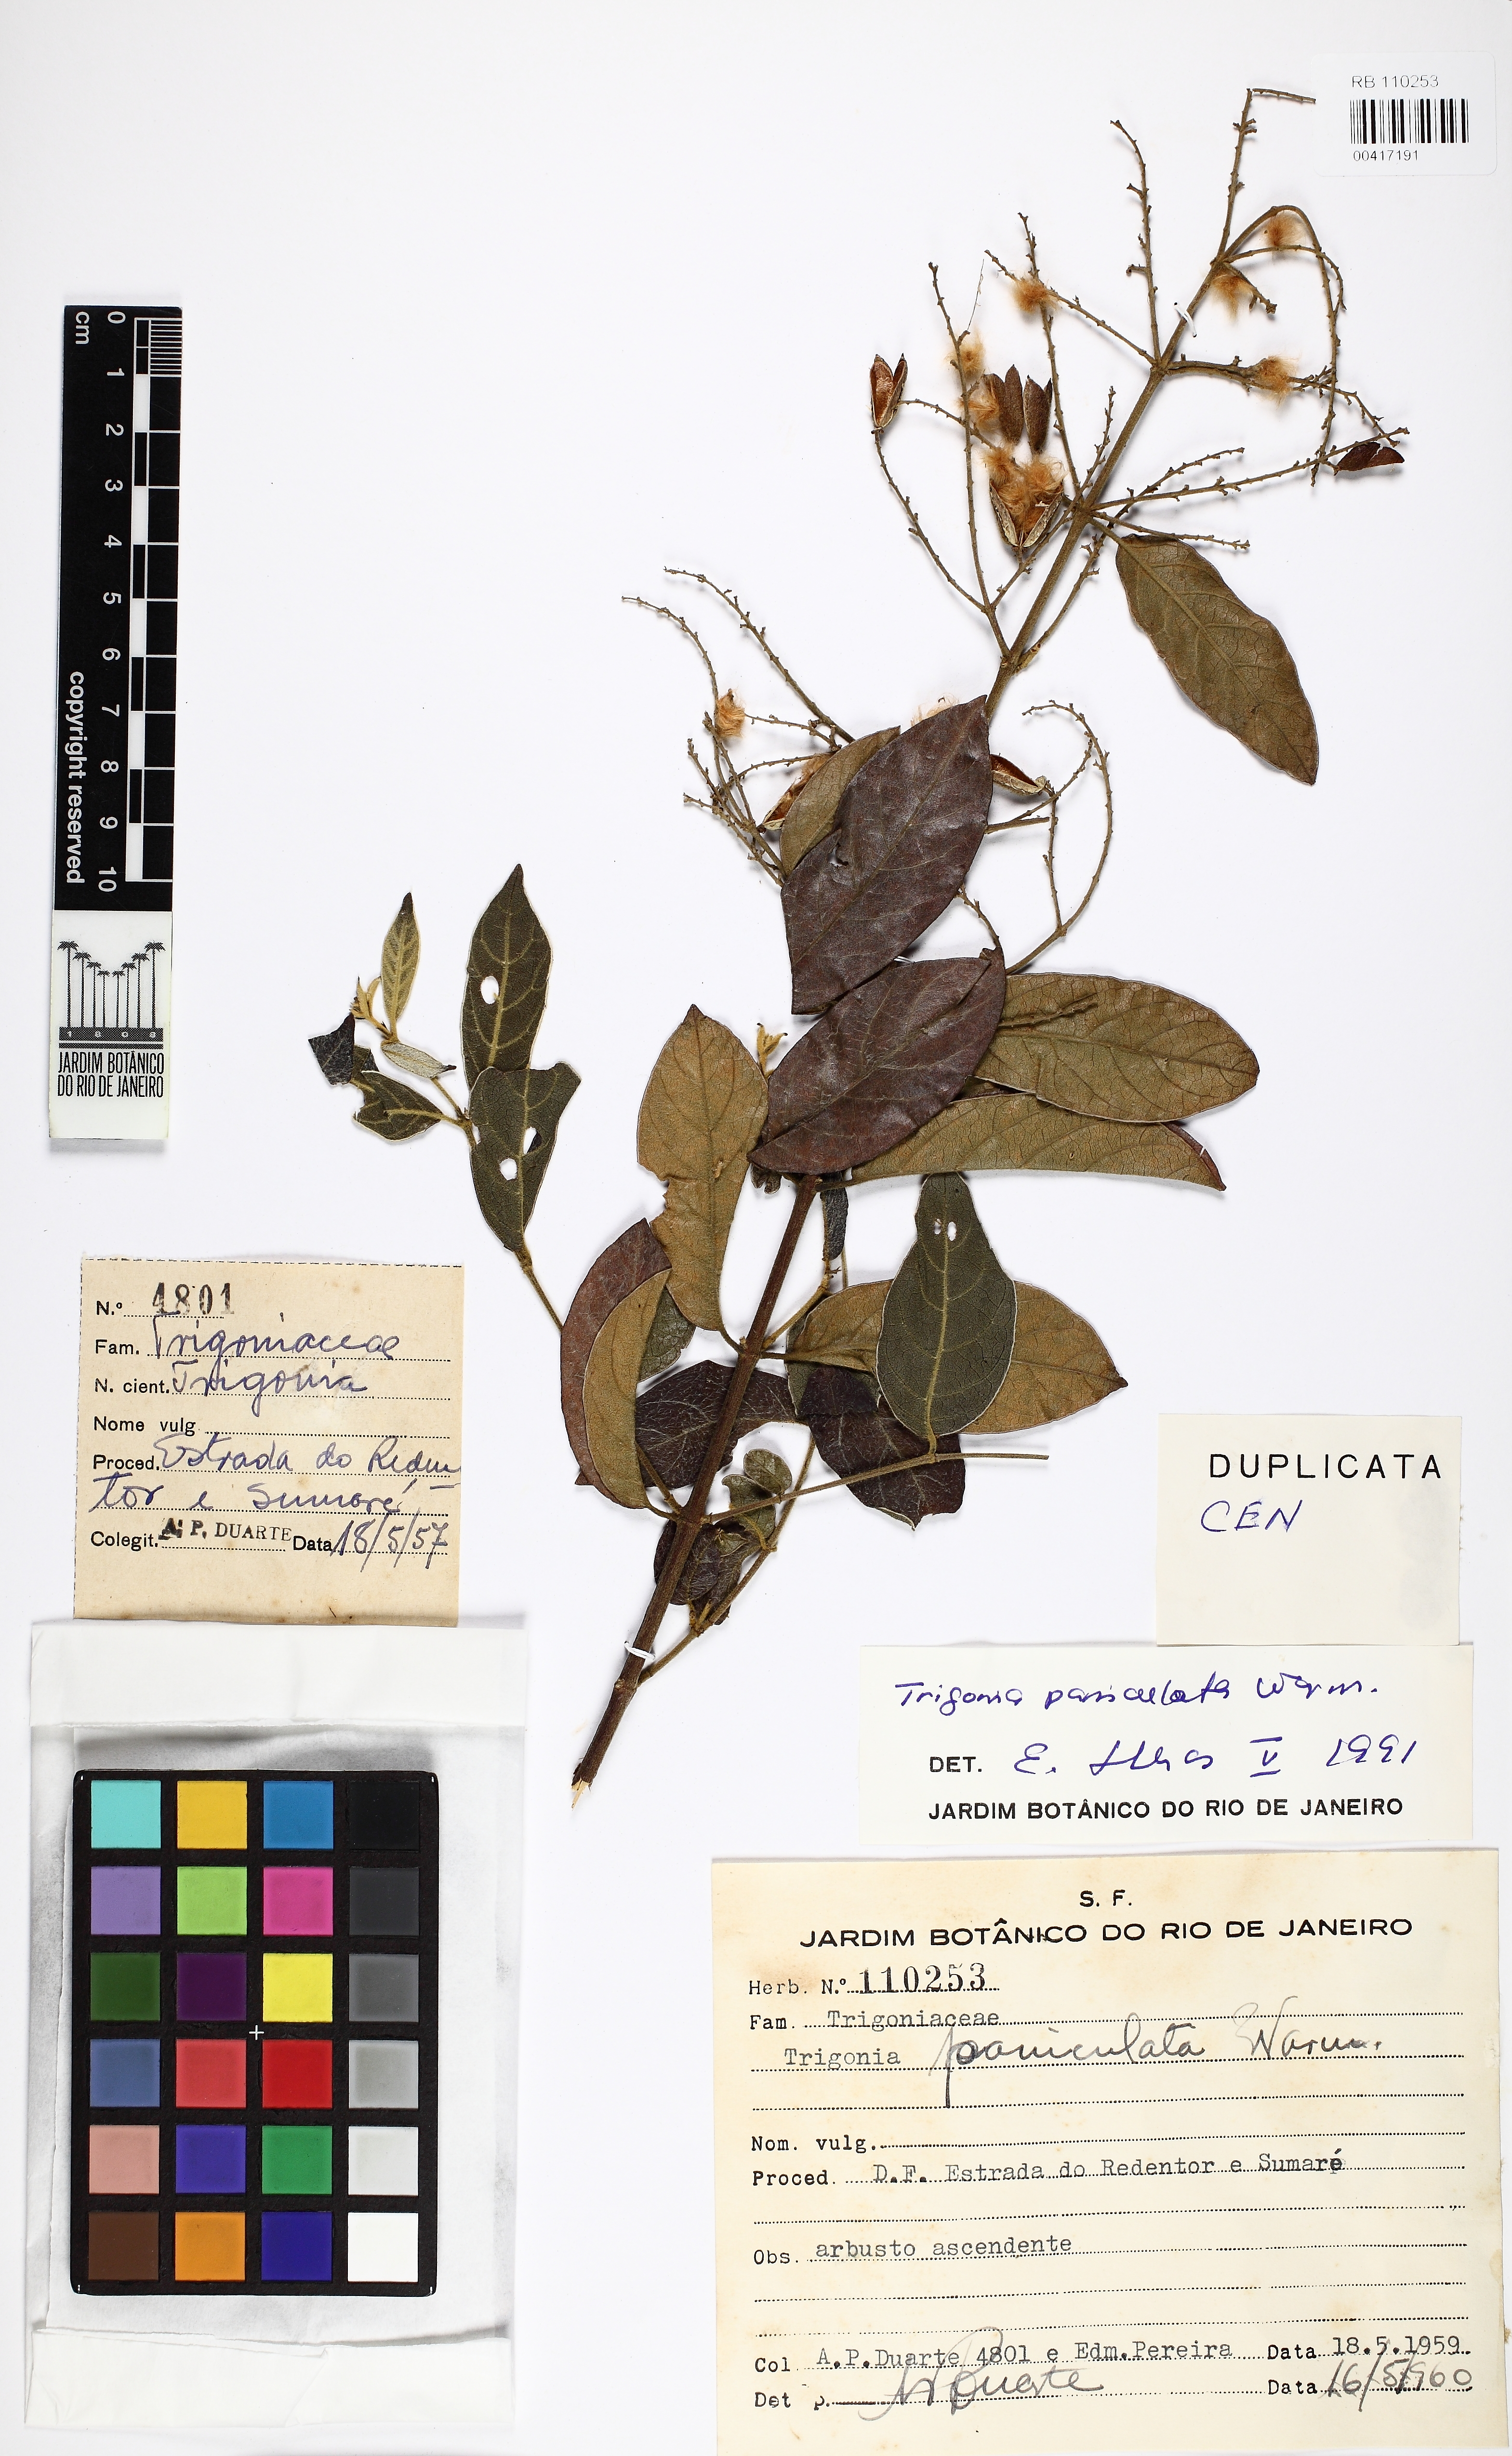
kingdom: Plantae
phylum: Tracheophyta
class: Magnoliopsida
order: Malpighiales
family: Trigoniaceae
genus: Trigonia
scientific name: Trigonia paniculata
